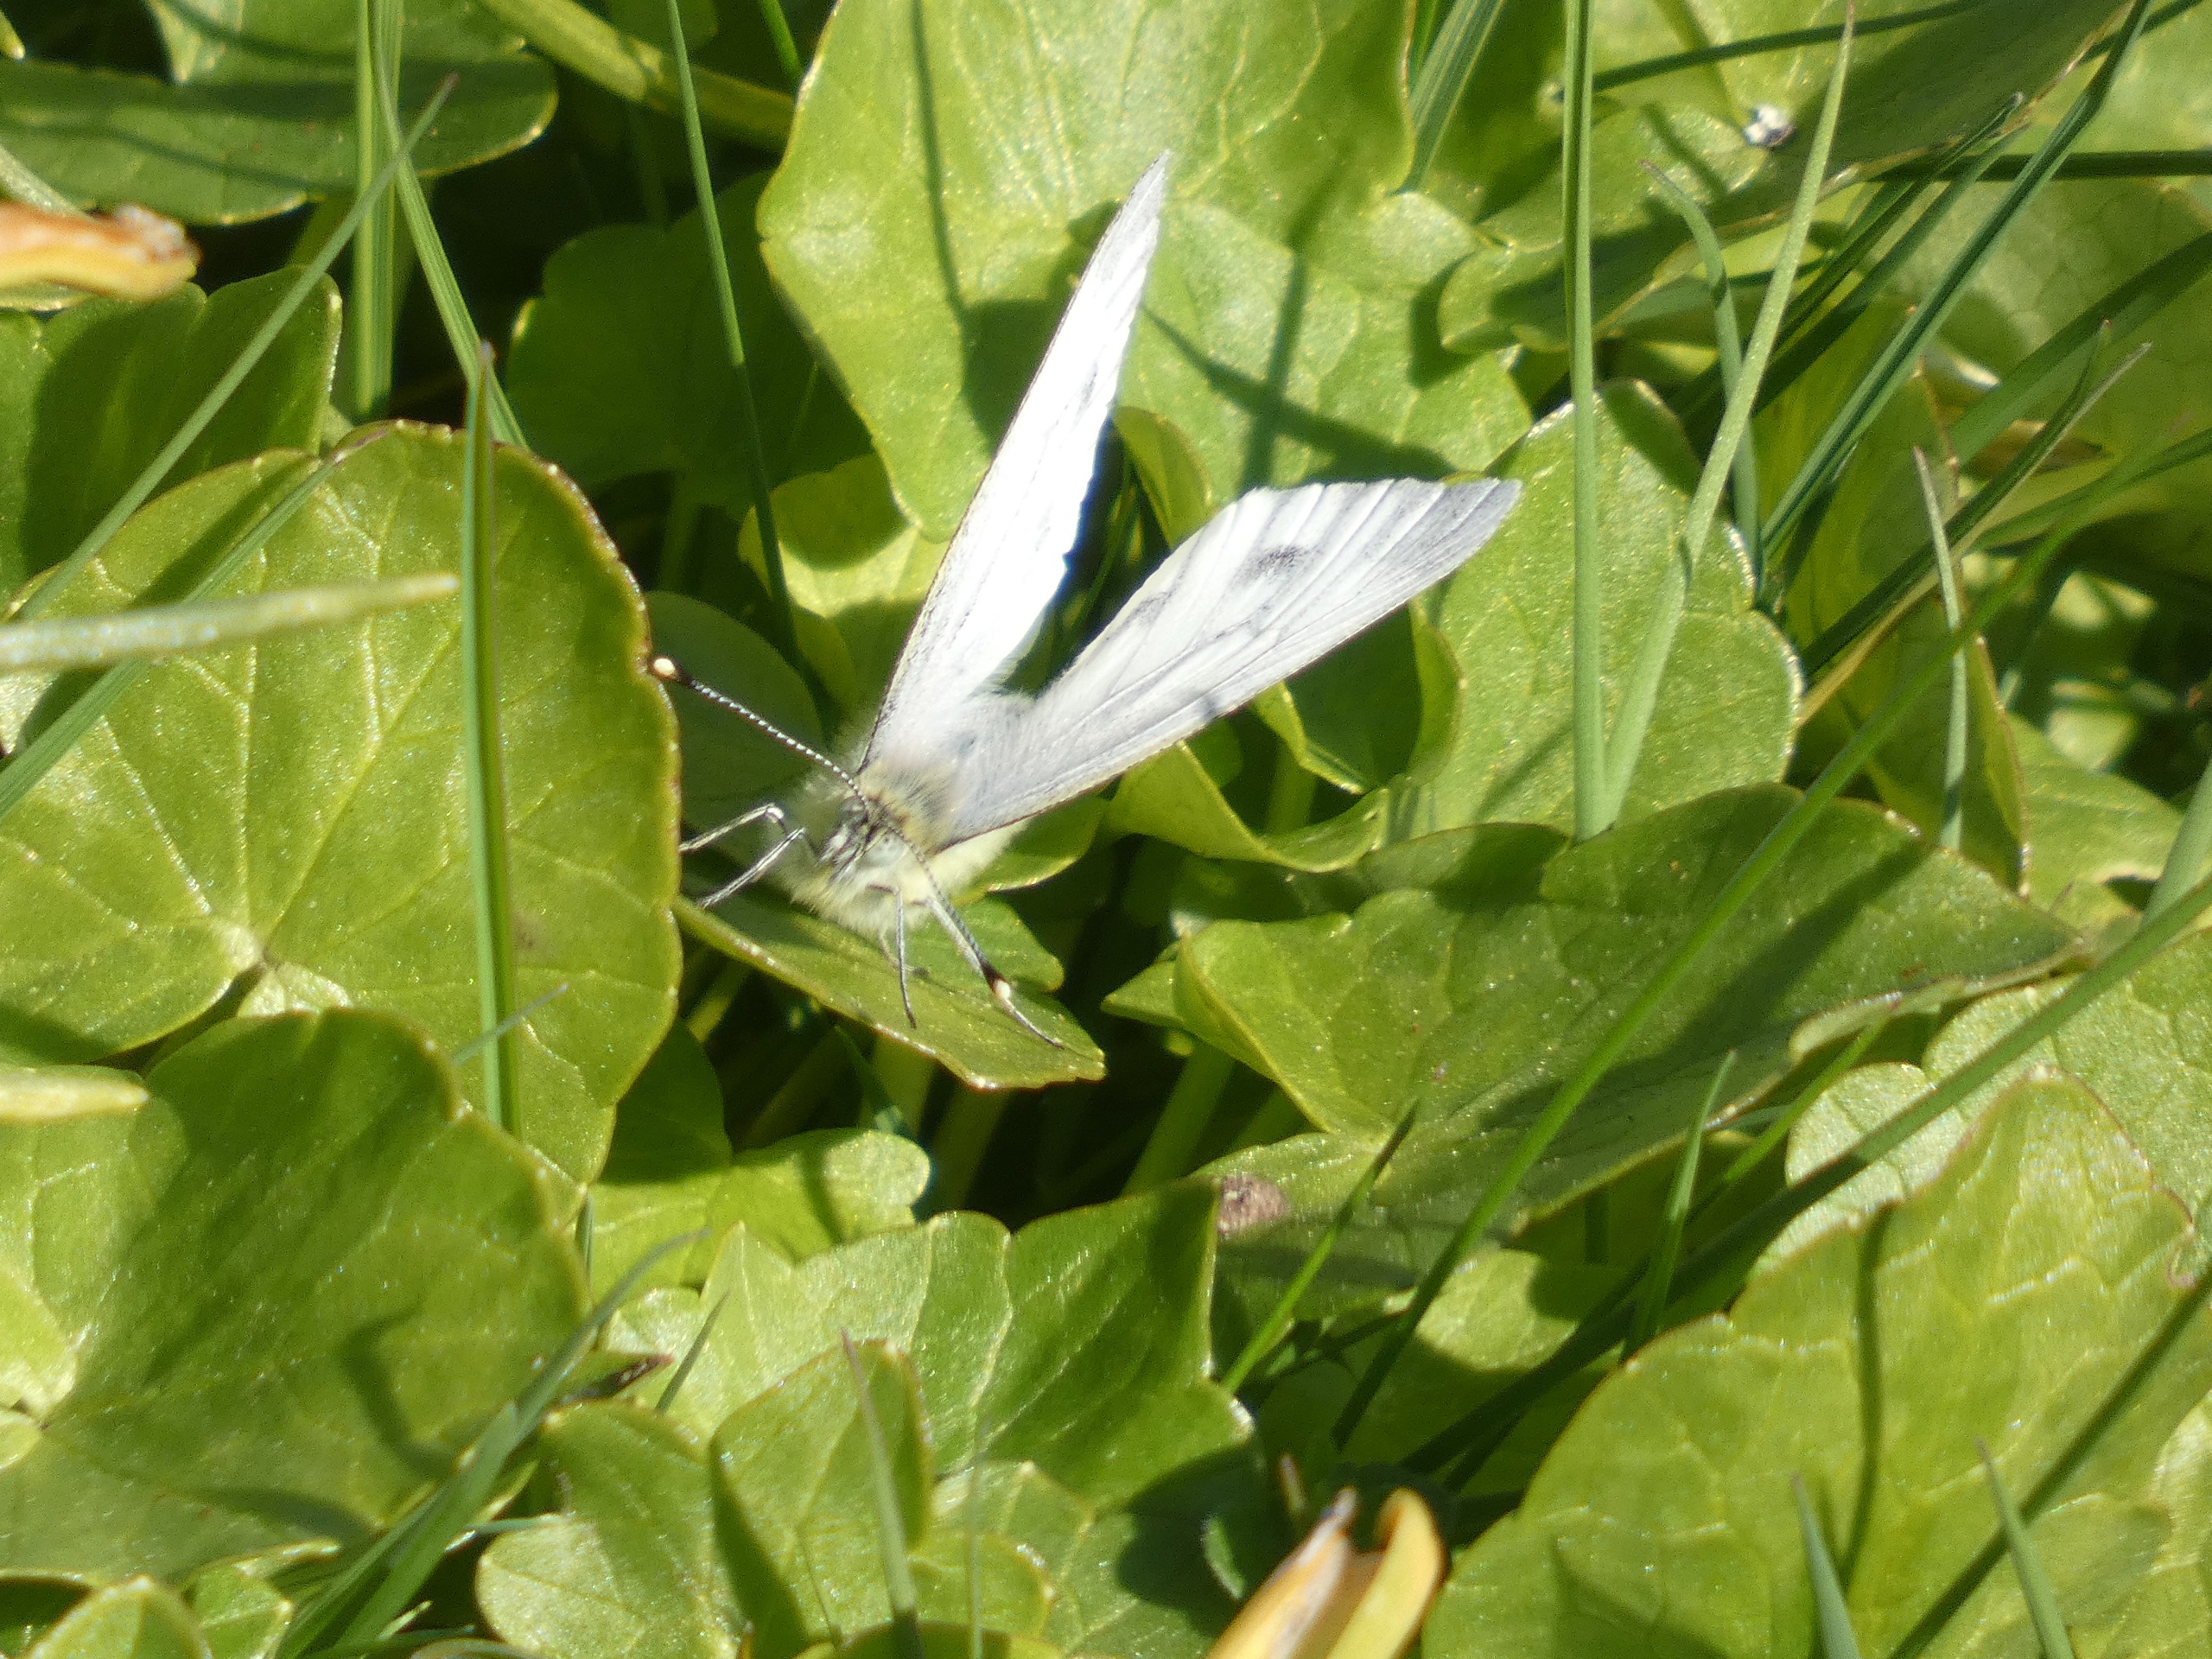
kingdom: Animalia
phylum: Arthropoda
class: Insecta
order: Lepidoptera
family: Pieridae
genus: Pieris
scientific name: Pieris napi
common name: Grønåret kålsommerfugl
